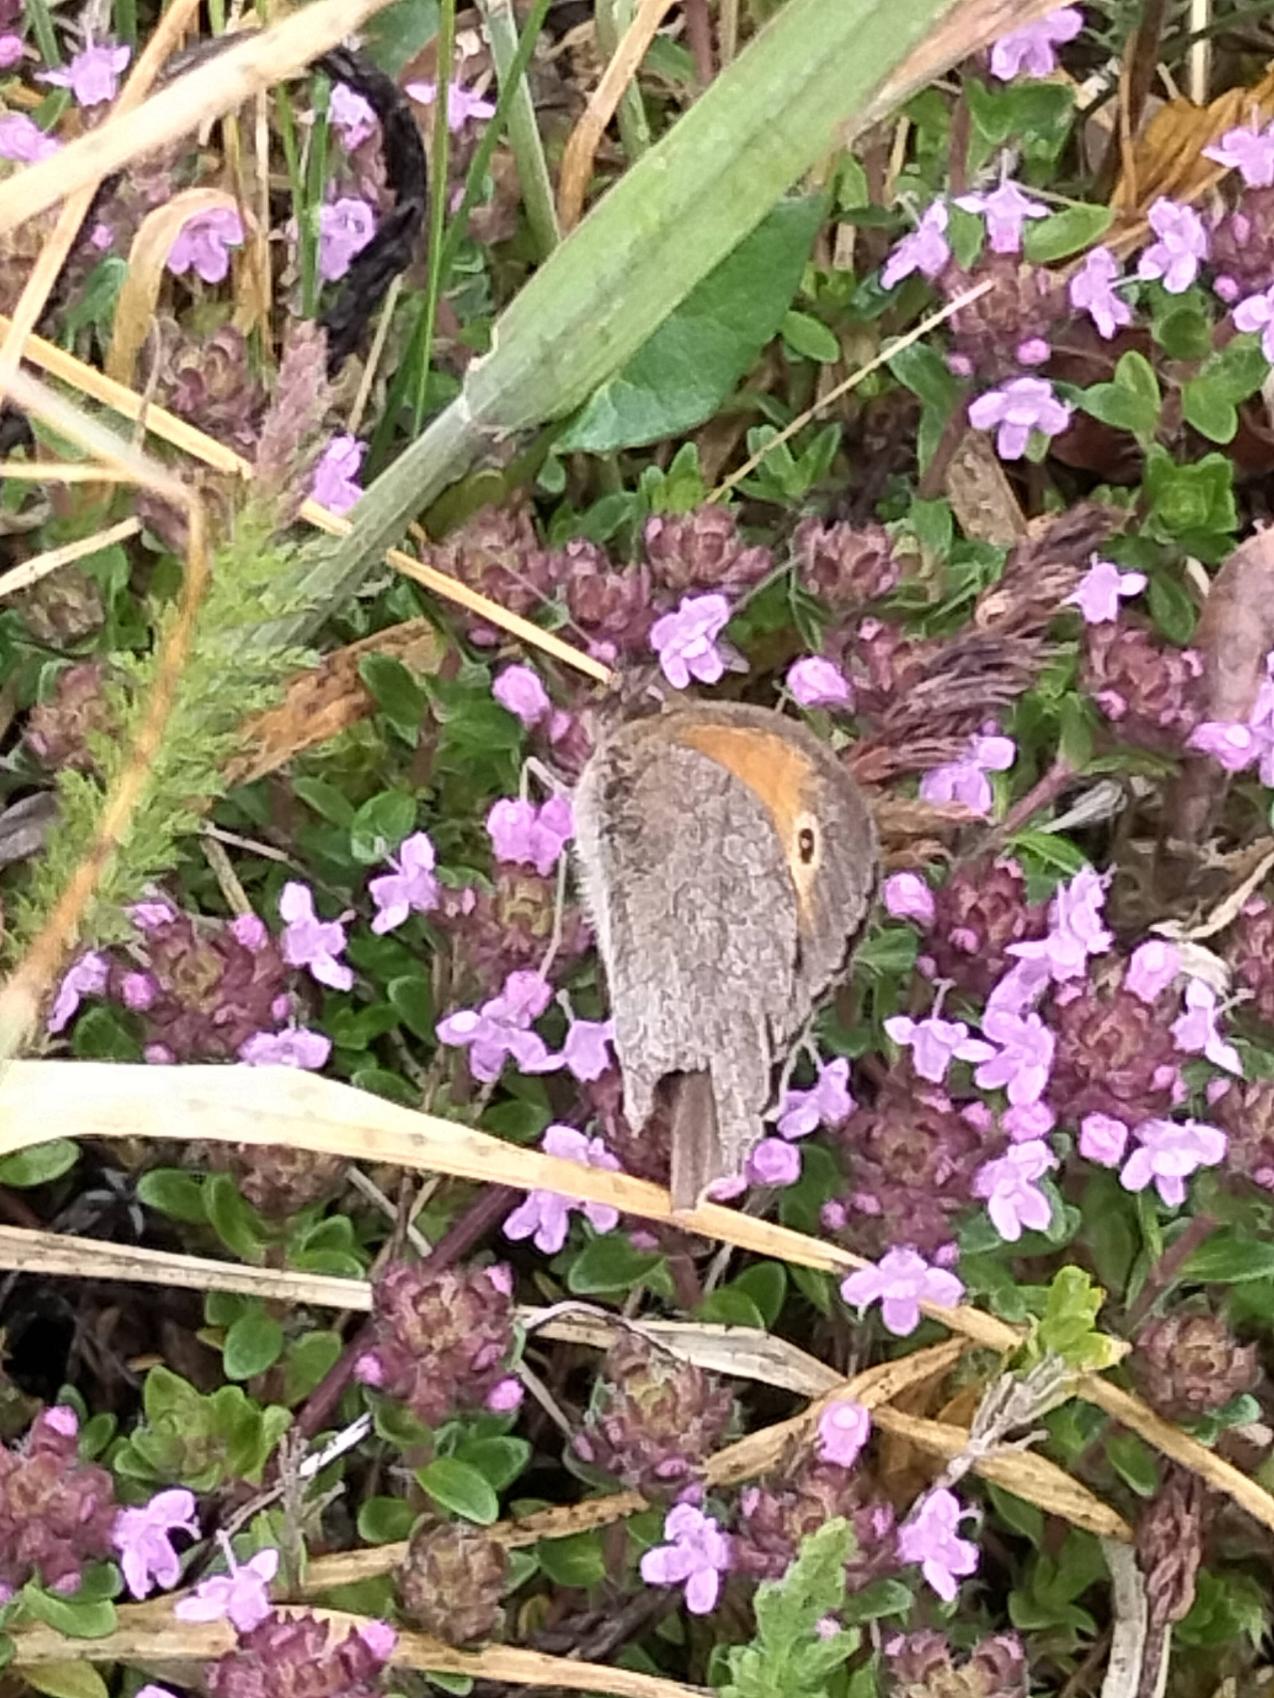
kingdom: Animalia
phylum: Arthropoda
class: Insecta
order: Lepidoptera
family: Nymphalidae
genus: Maniola
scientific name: Maniola jurtina
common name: Græsrandøje
